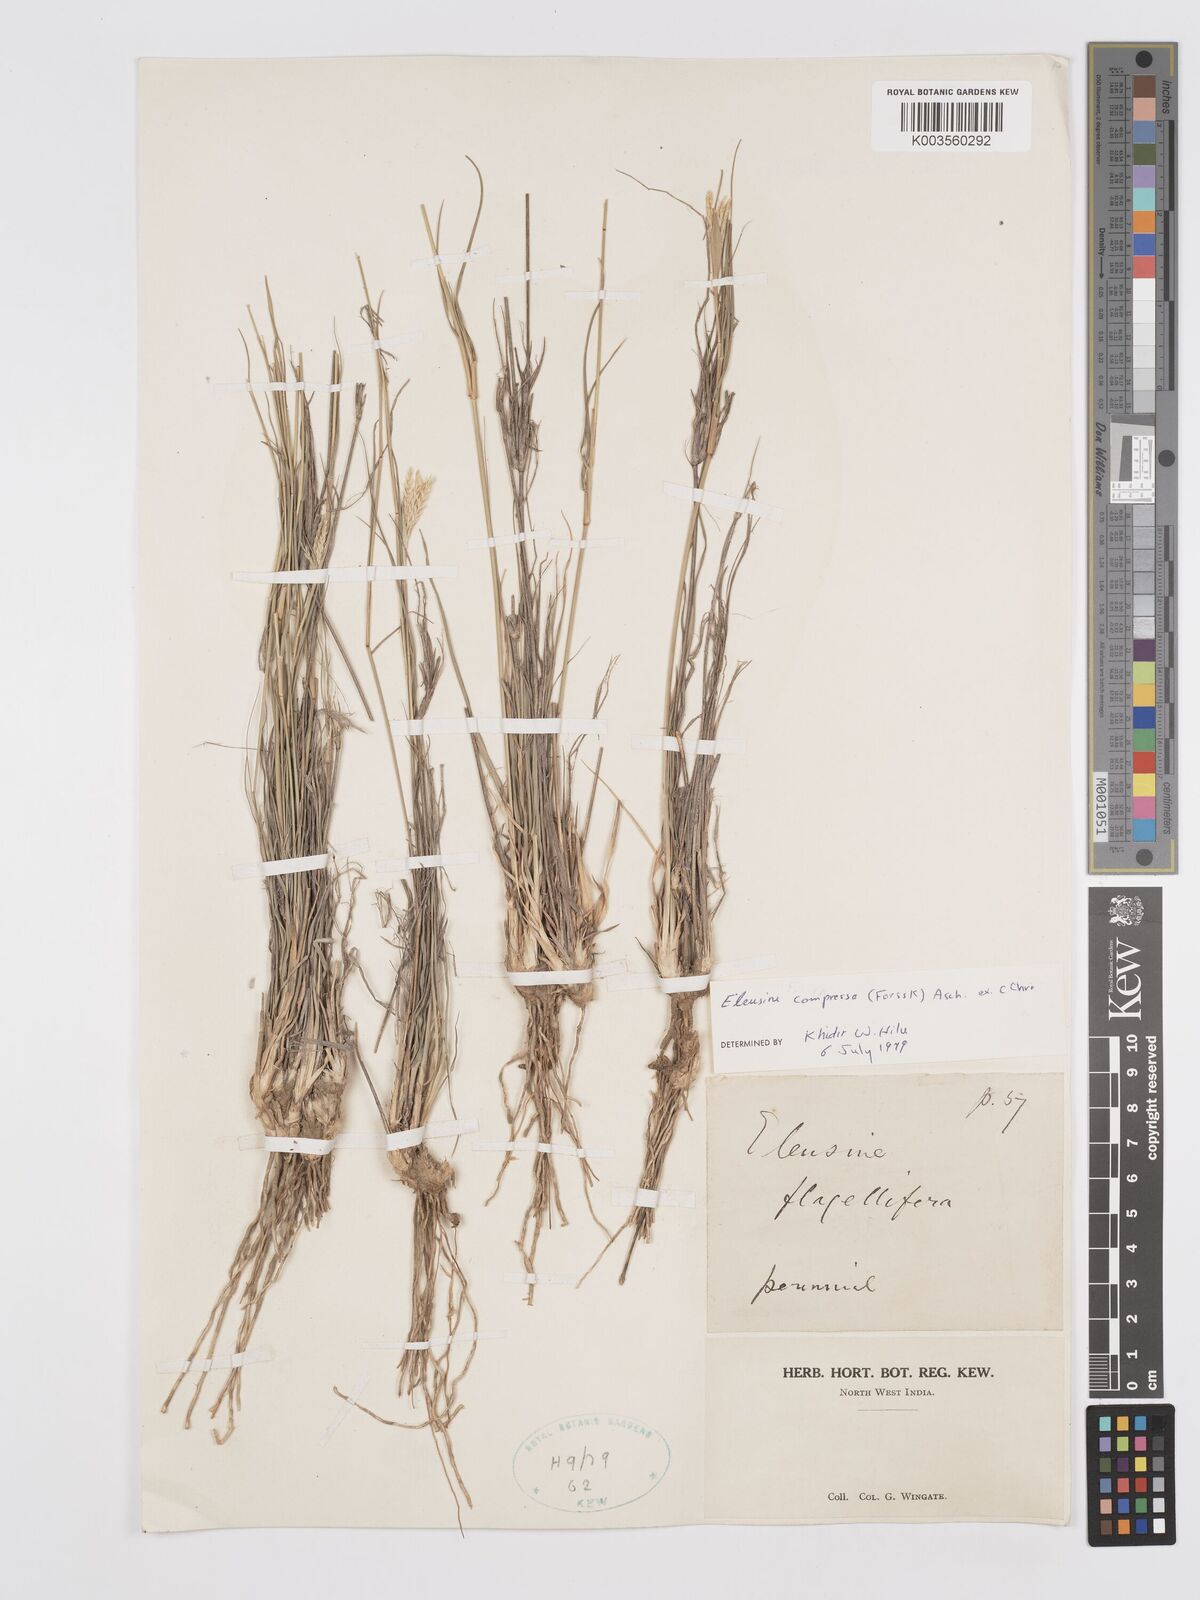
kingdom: Plantae
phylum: Tracheophyta
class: Liliopsida
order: Poales
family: Poaceae
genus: Chloris
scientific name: Chloris flagellifera
